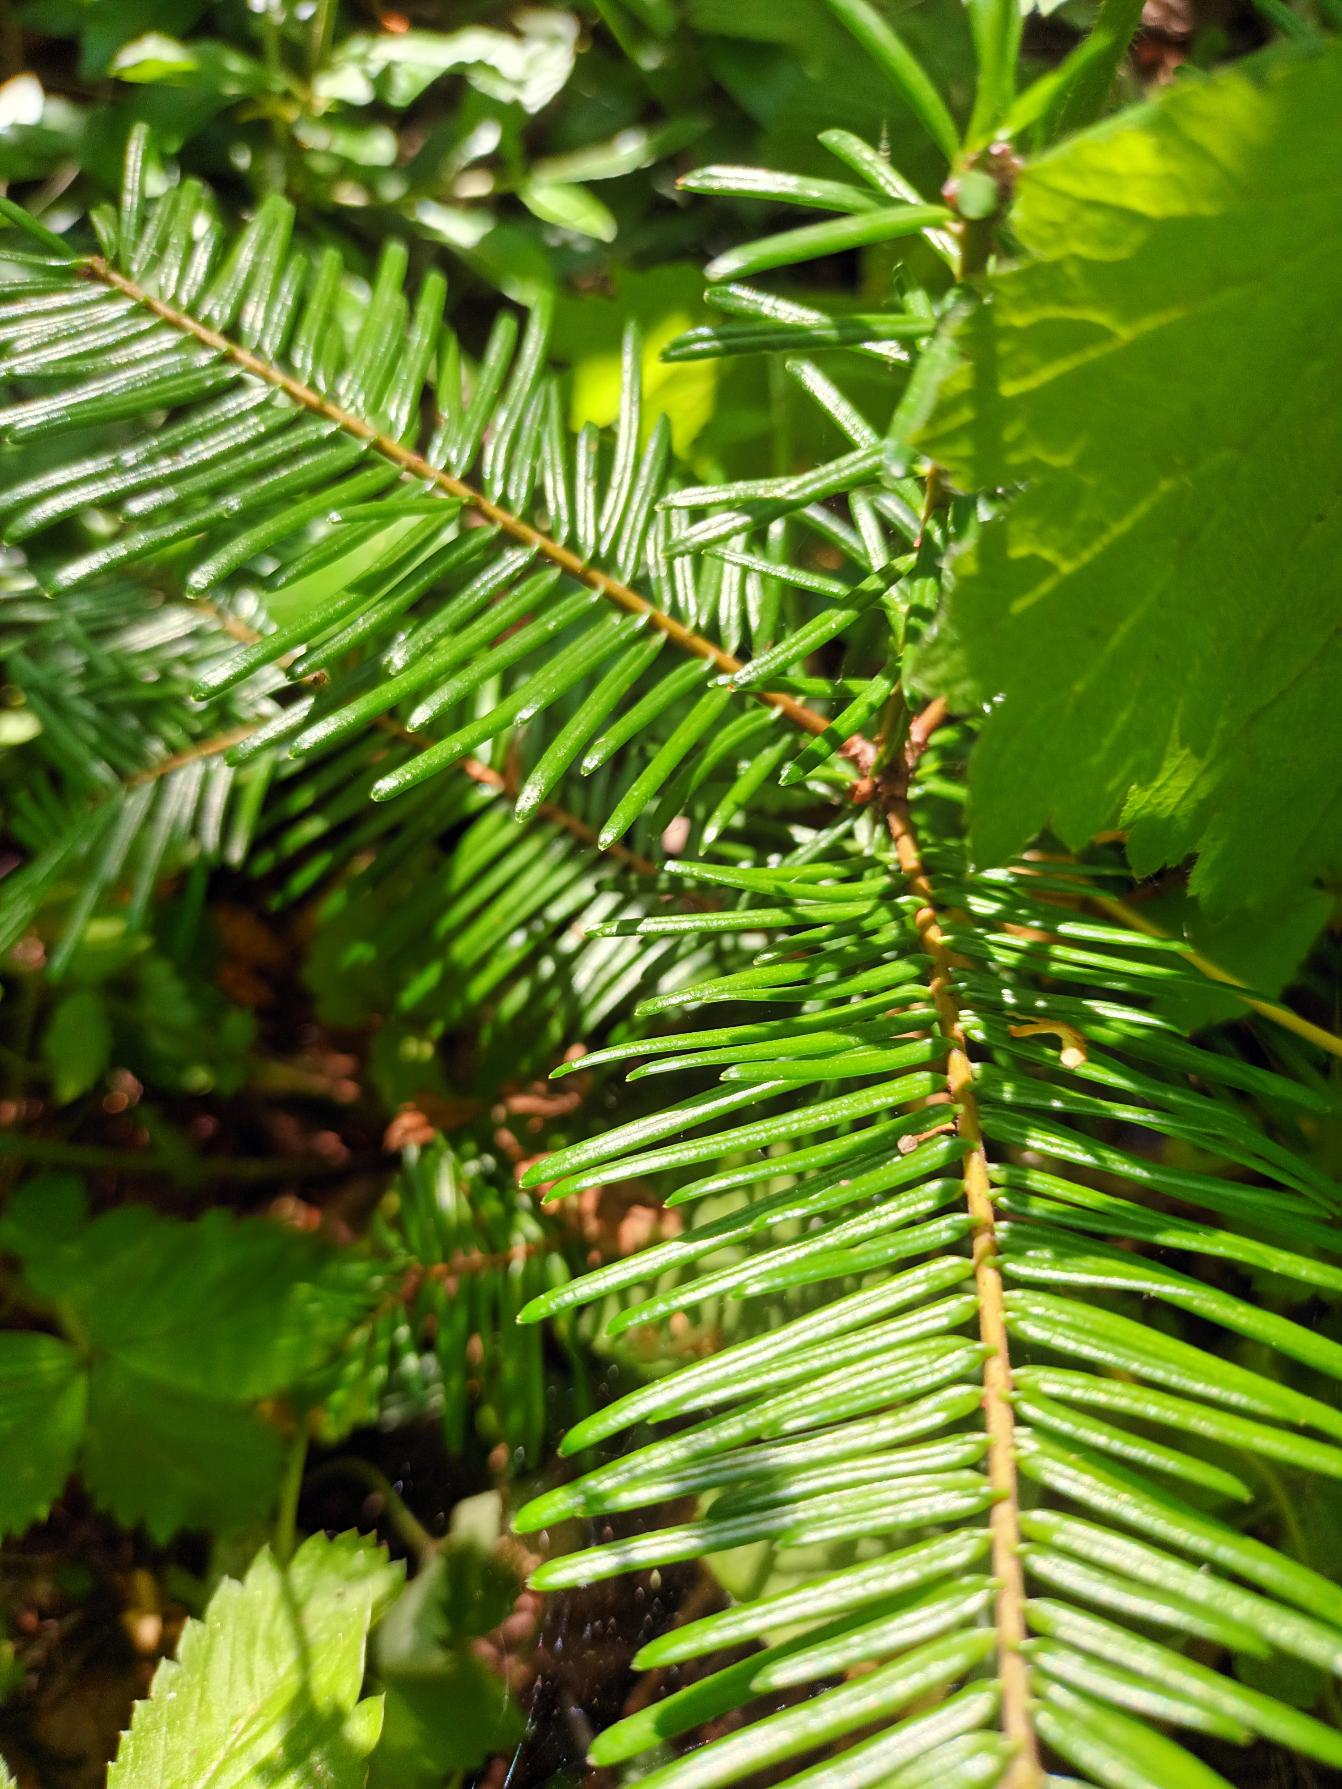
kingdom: Plantae
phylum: Tracheophyta
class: Pinopsida
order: Pinales
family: Pinaceae
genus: Abies
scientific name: Abies grandis
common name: Kæmpegran
